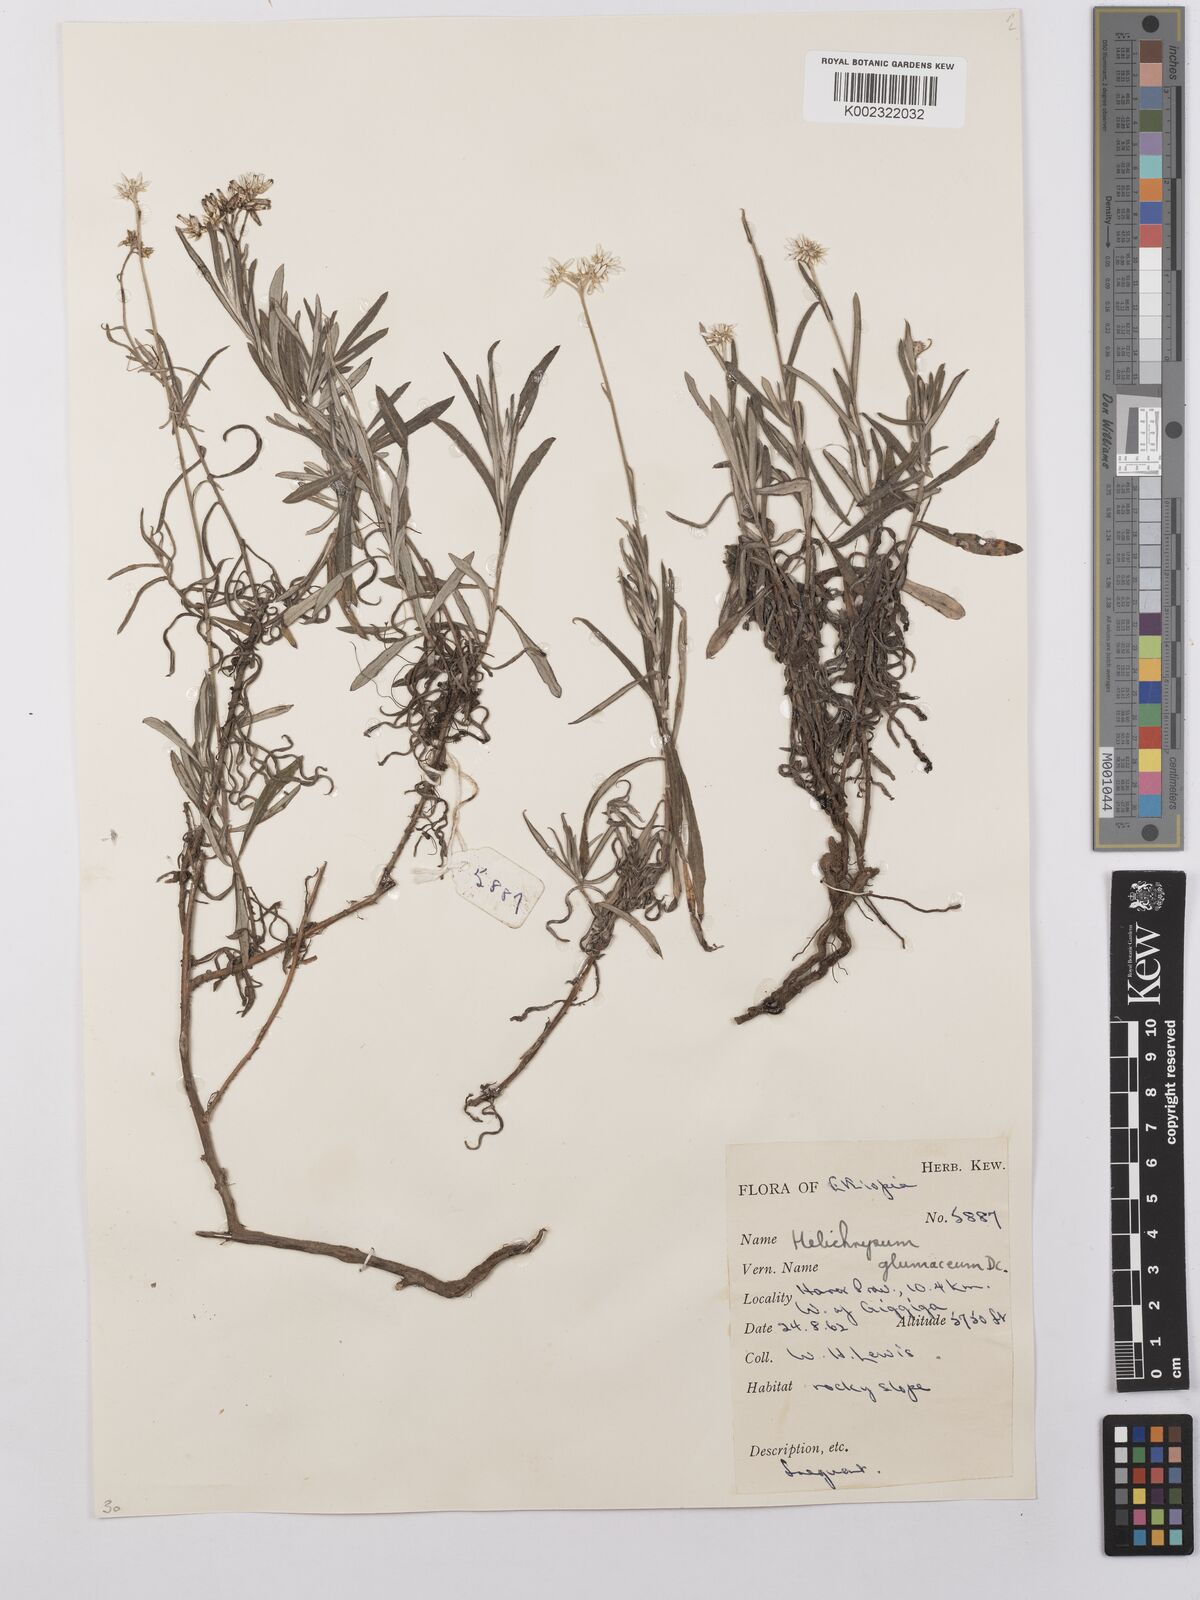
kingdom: Plantae
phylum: Tracheophyta
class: Magnoliopsida
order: Asterales
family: Asteraceae
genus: Helichrysum
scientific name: Helichrysum glumaceum
